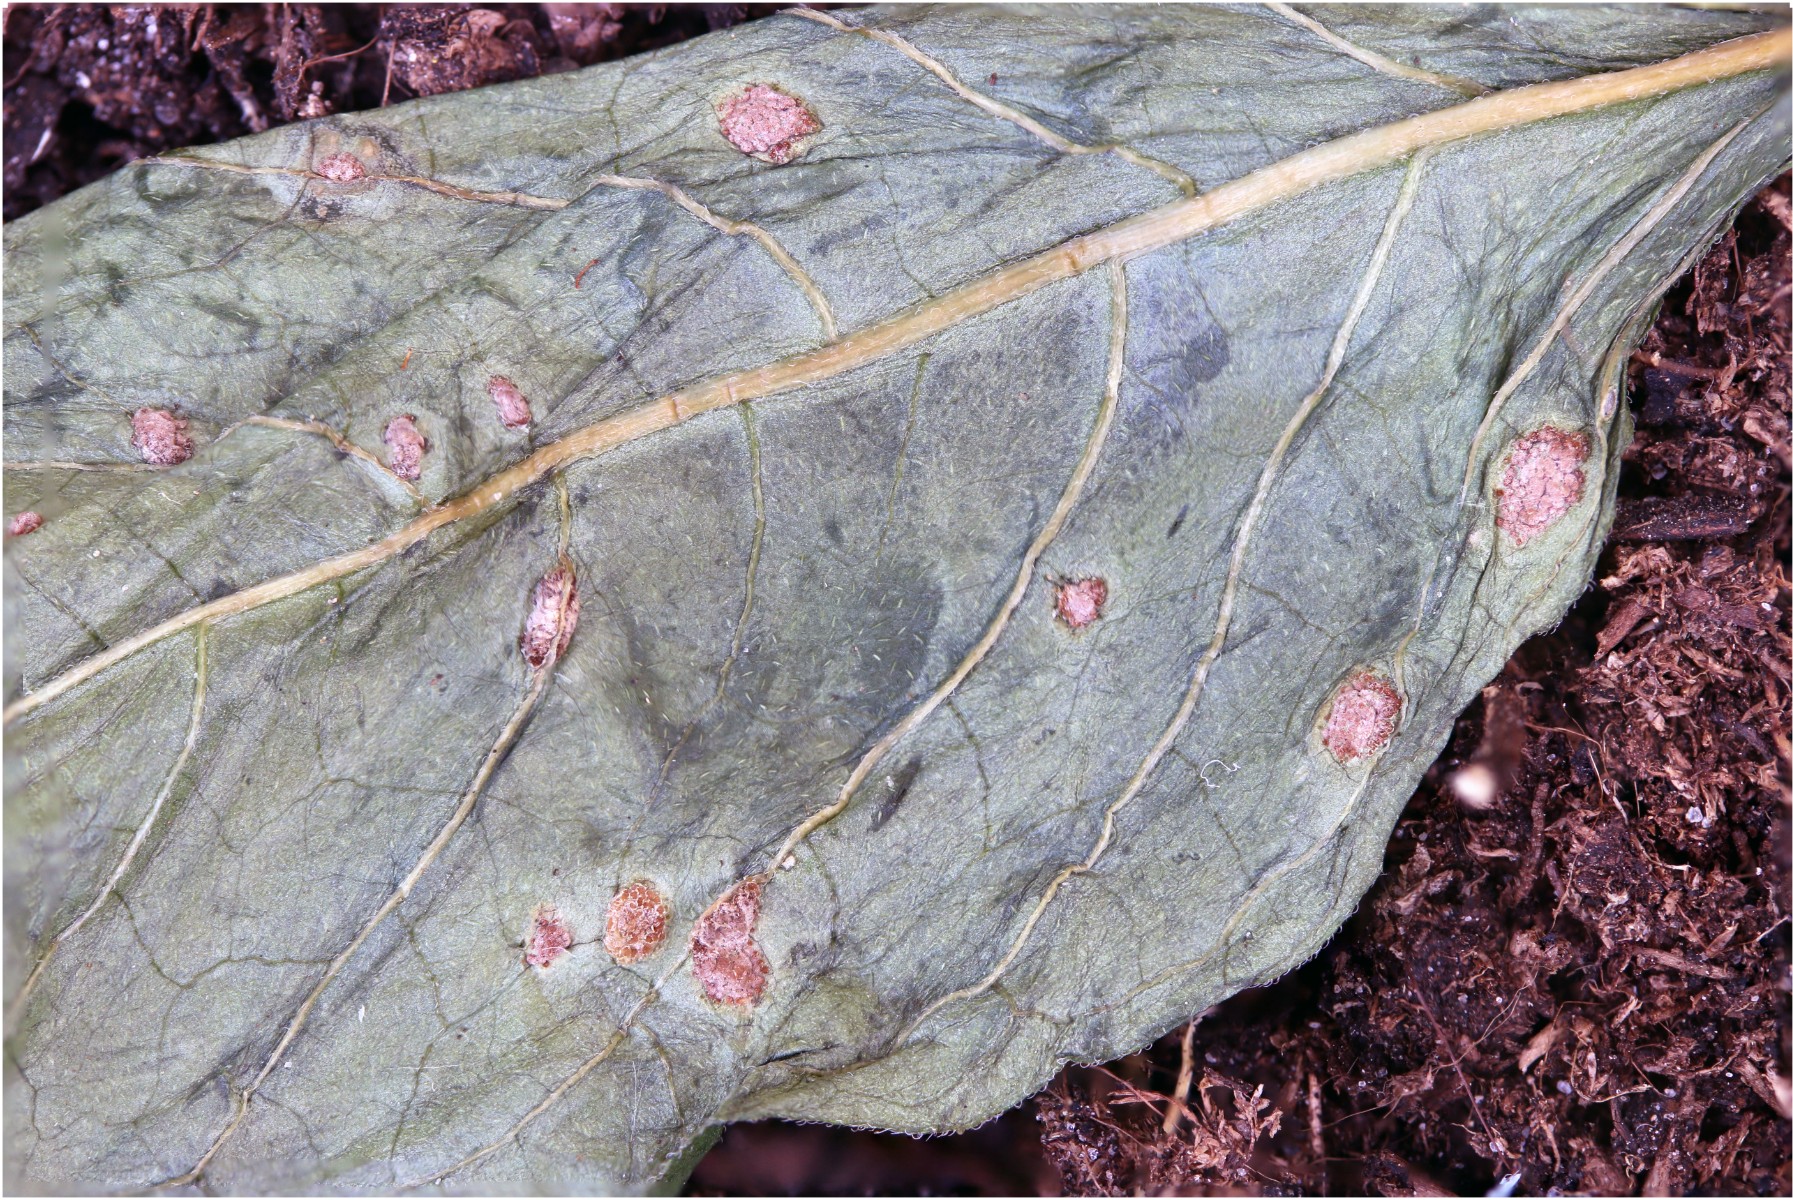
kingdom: Fungi
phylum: Basidiomycota
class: Pucciniomycetes
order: Pucciniales
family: Pucciniaceae
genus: Puccinia
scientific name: Puccinia circaeae
